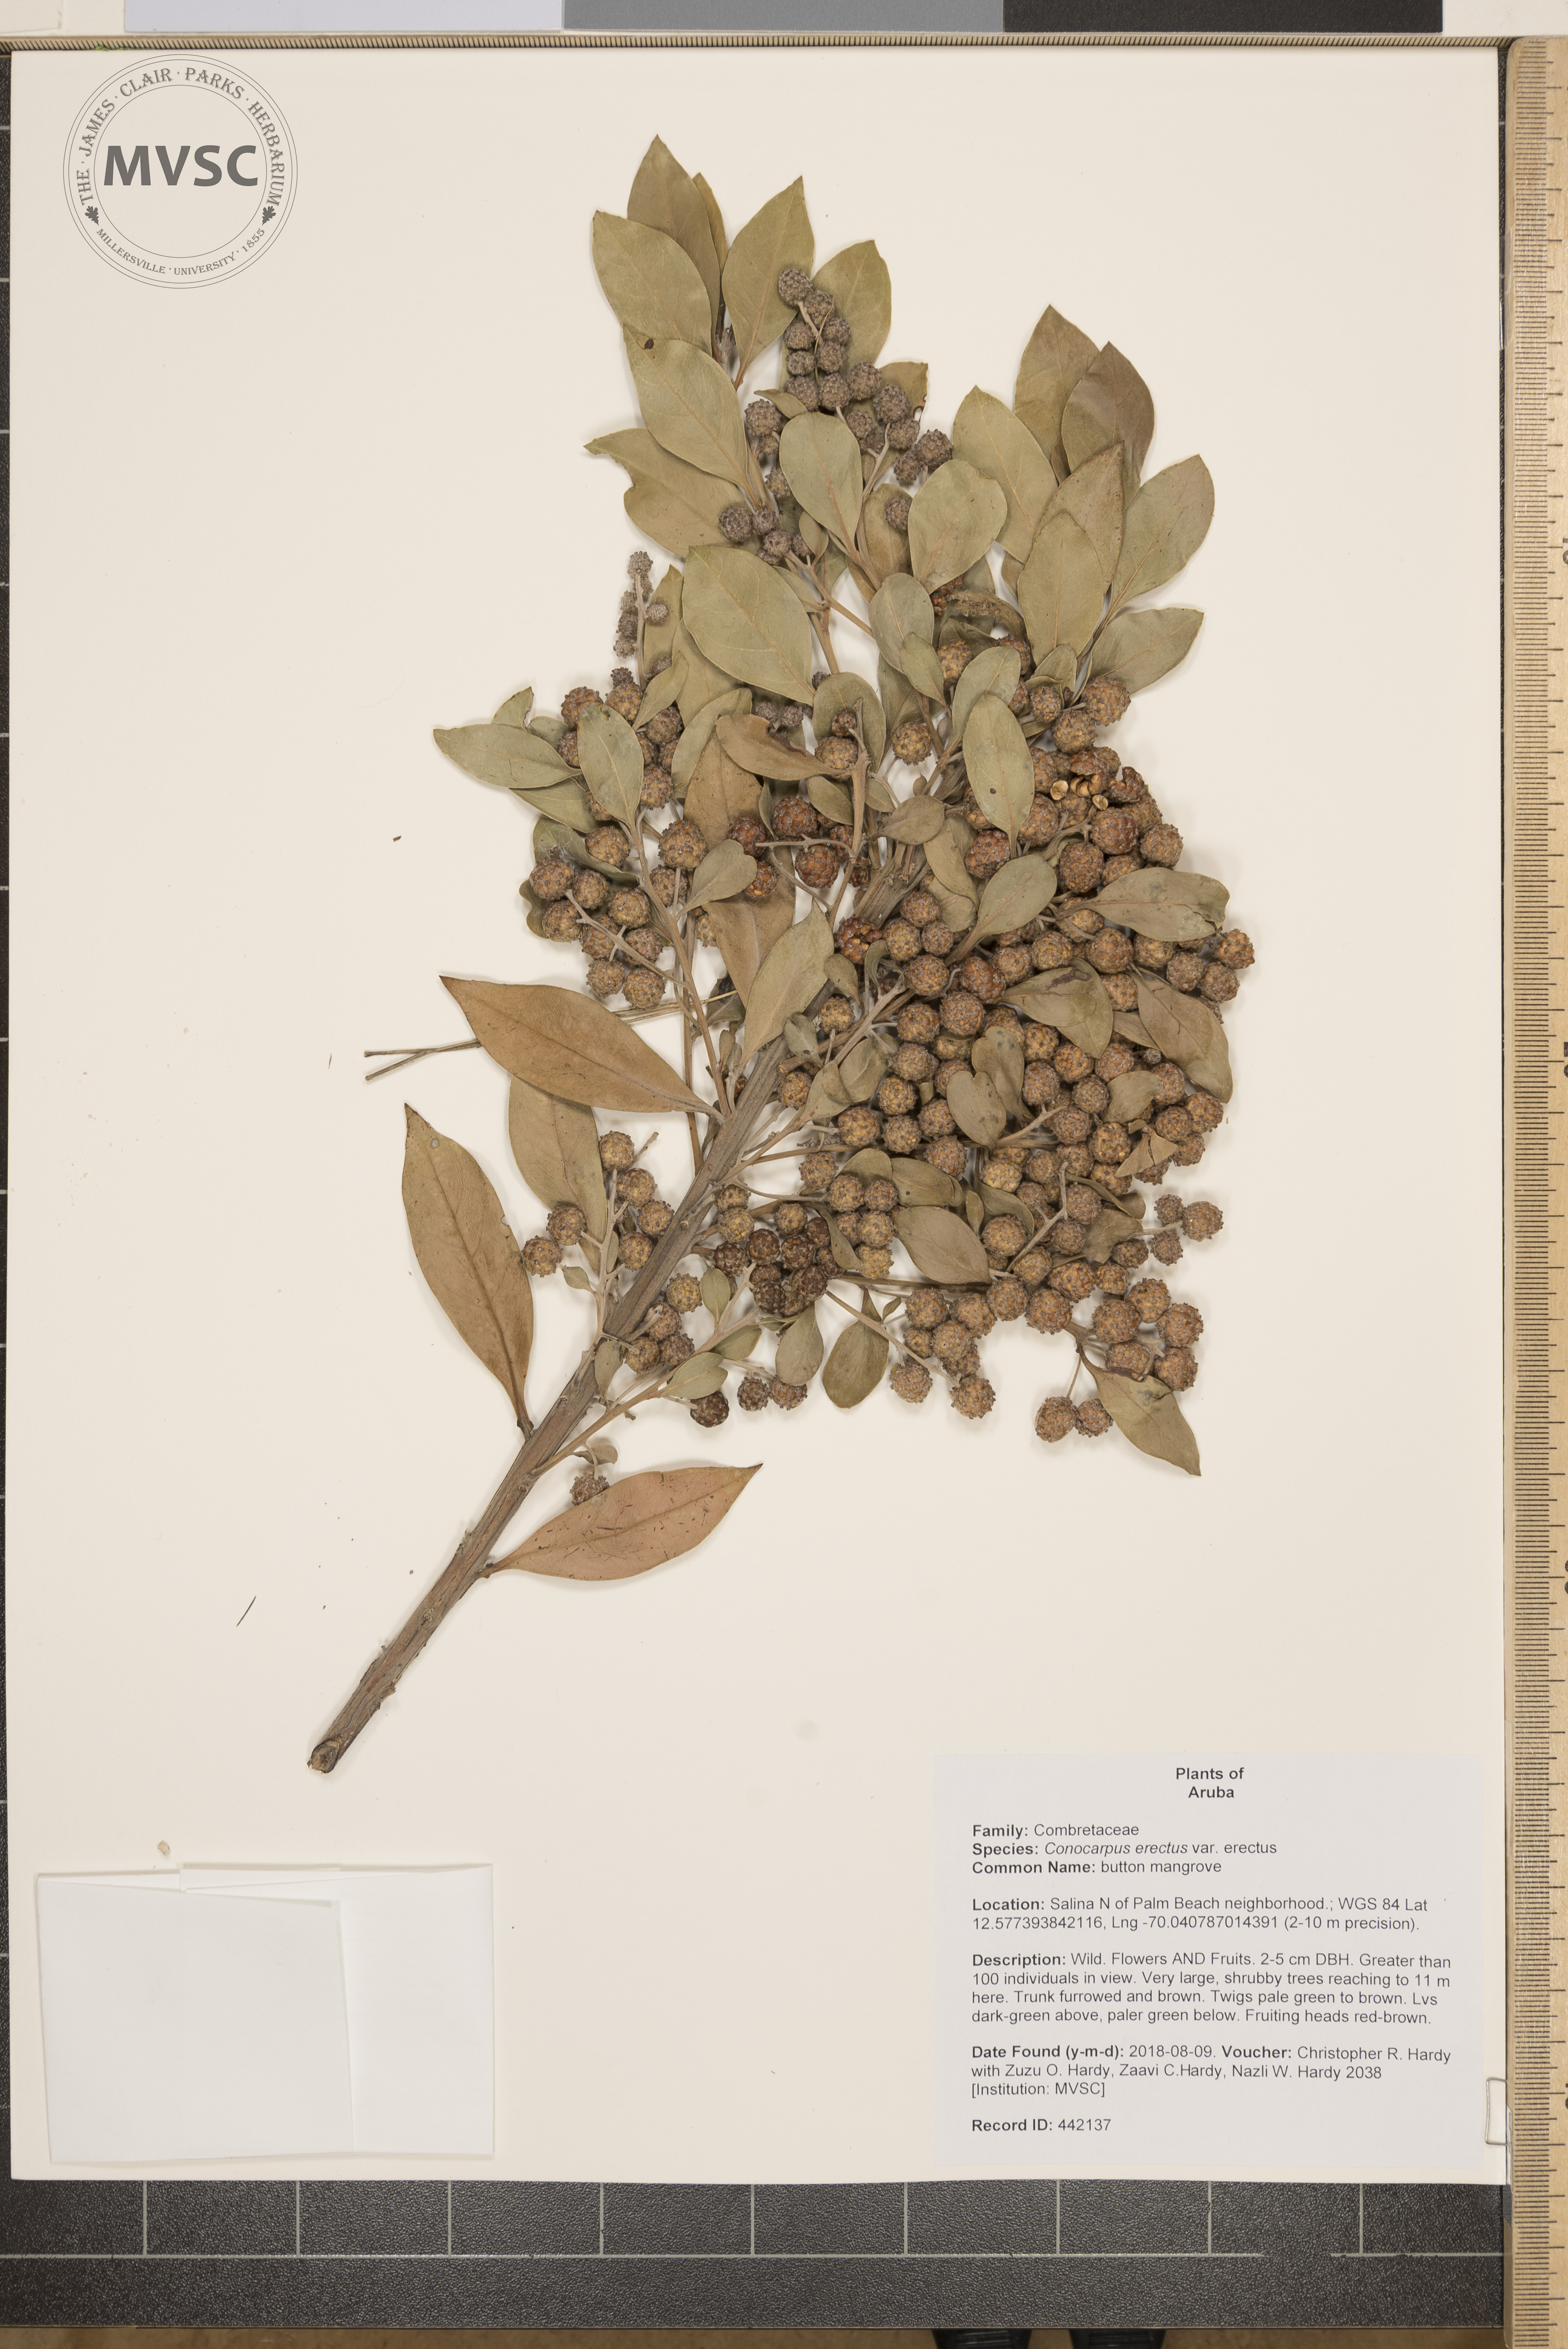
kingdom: Plantae
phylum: Tracheophyta
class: Magnoliopsida
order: Myrtales
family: Combretaceae
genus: Conocarpus
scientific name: Conocarpus erectus
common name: button mangrove
